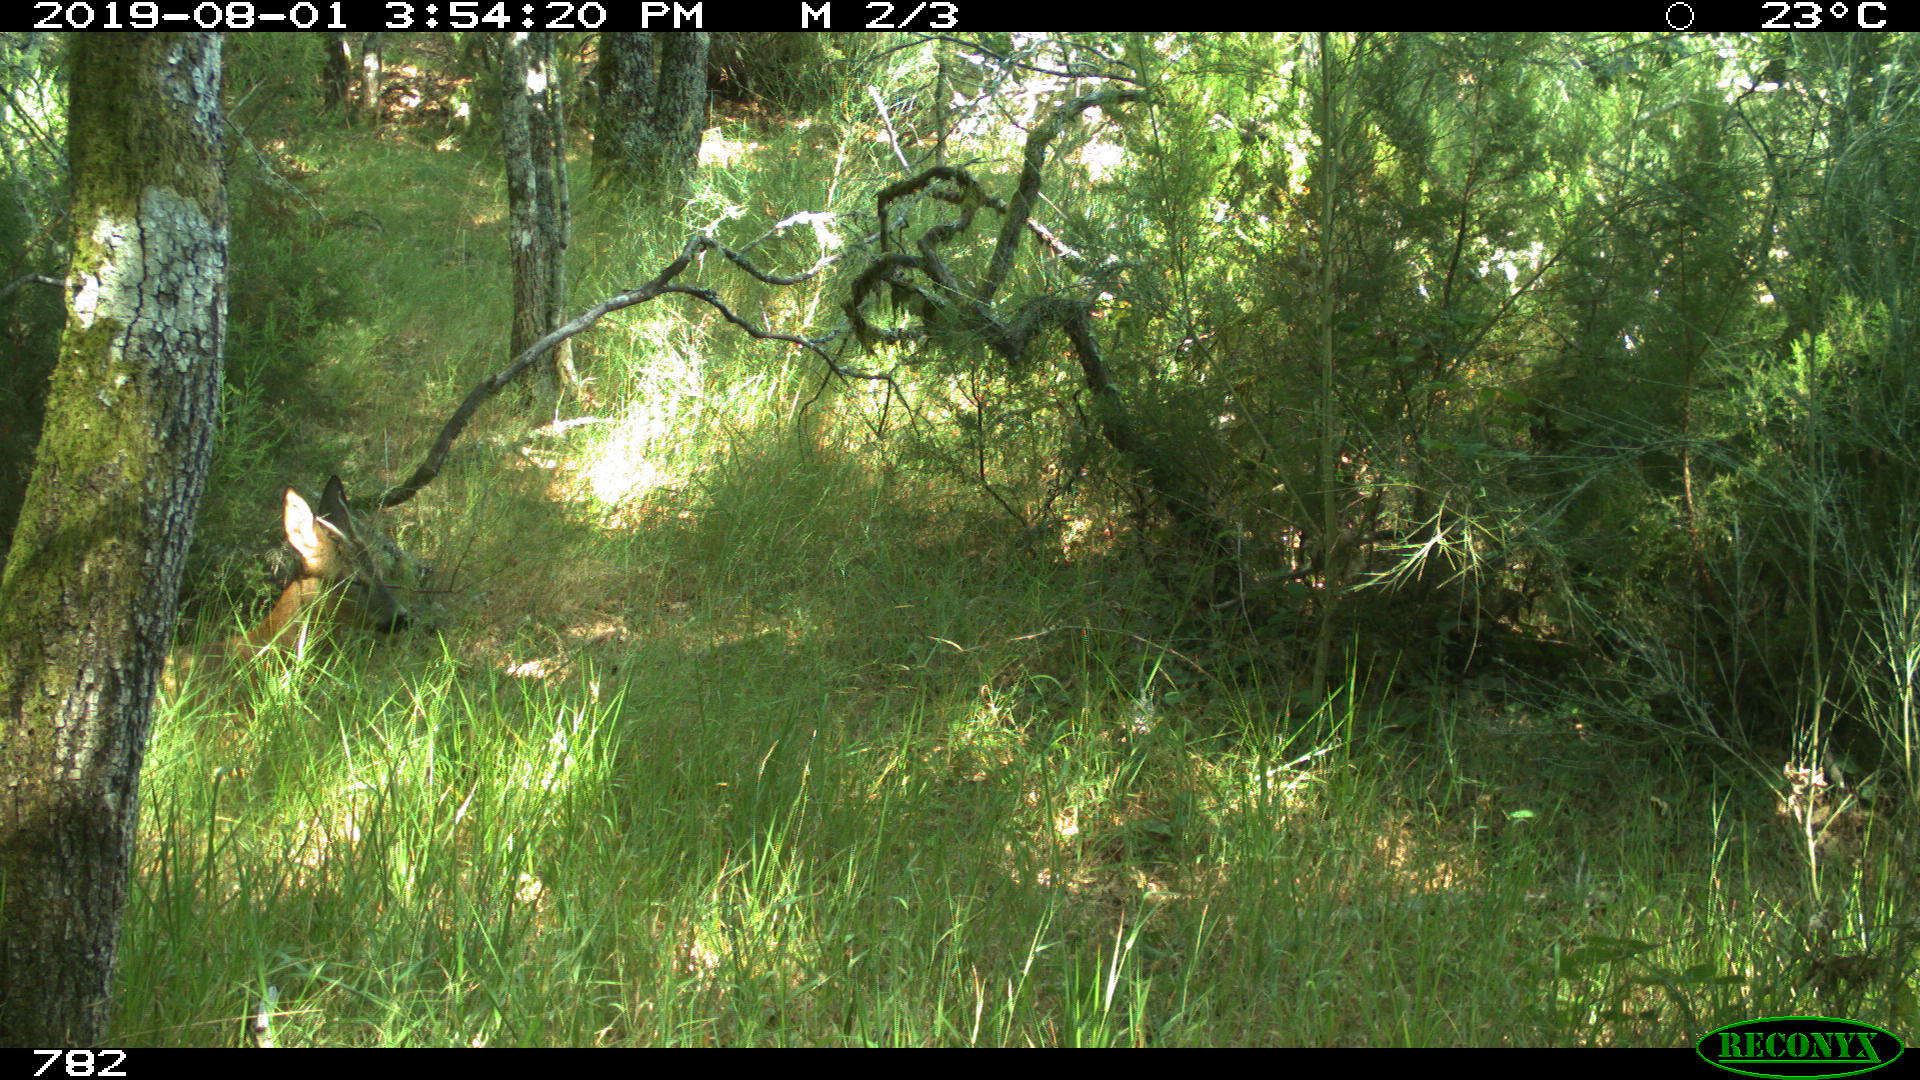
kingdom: Animalia
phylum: Chordata
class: Mammalia
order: Artiodactyla
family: Cervidae
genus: Capreolus
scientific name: Capreolus capreolus
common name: Western roe deer
